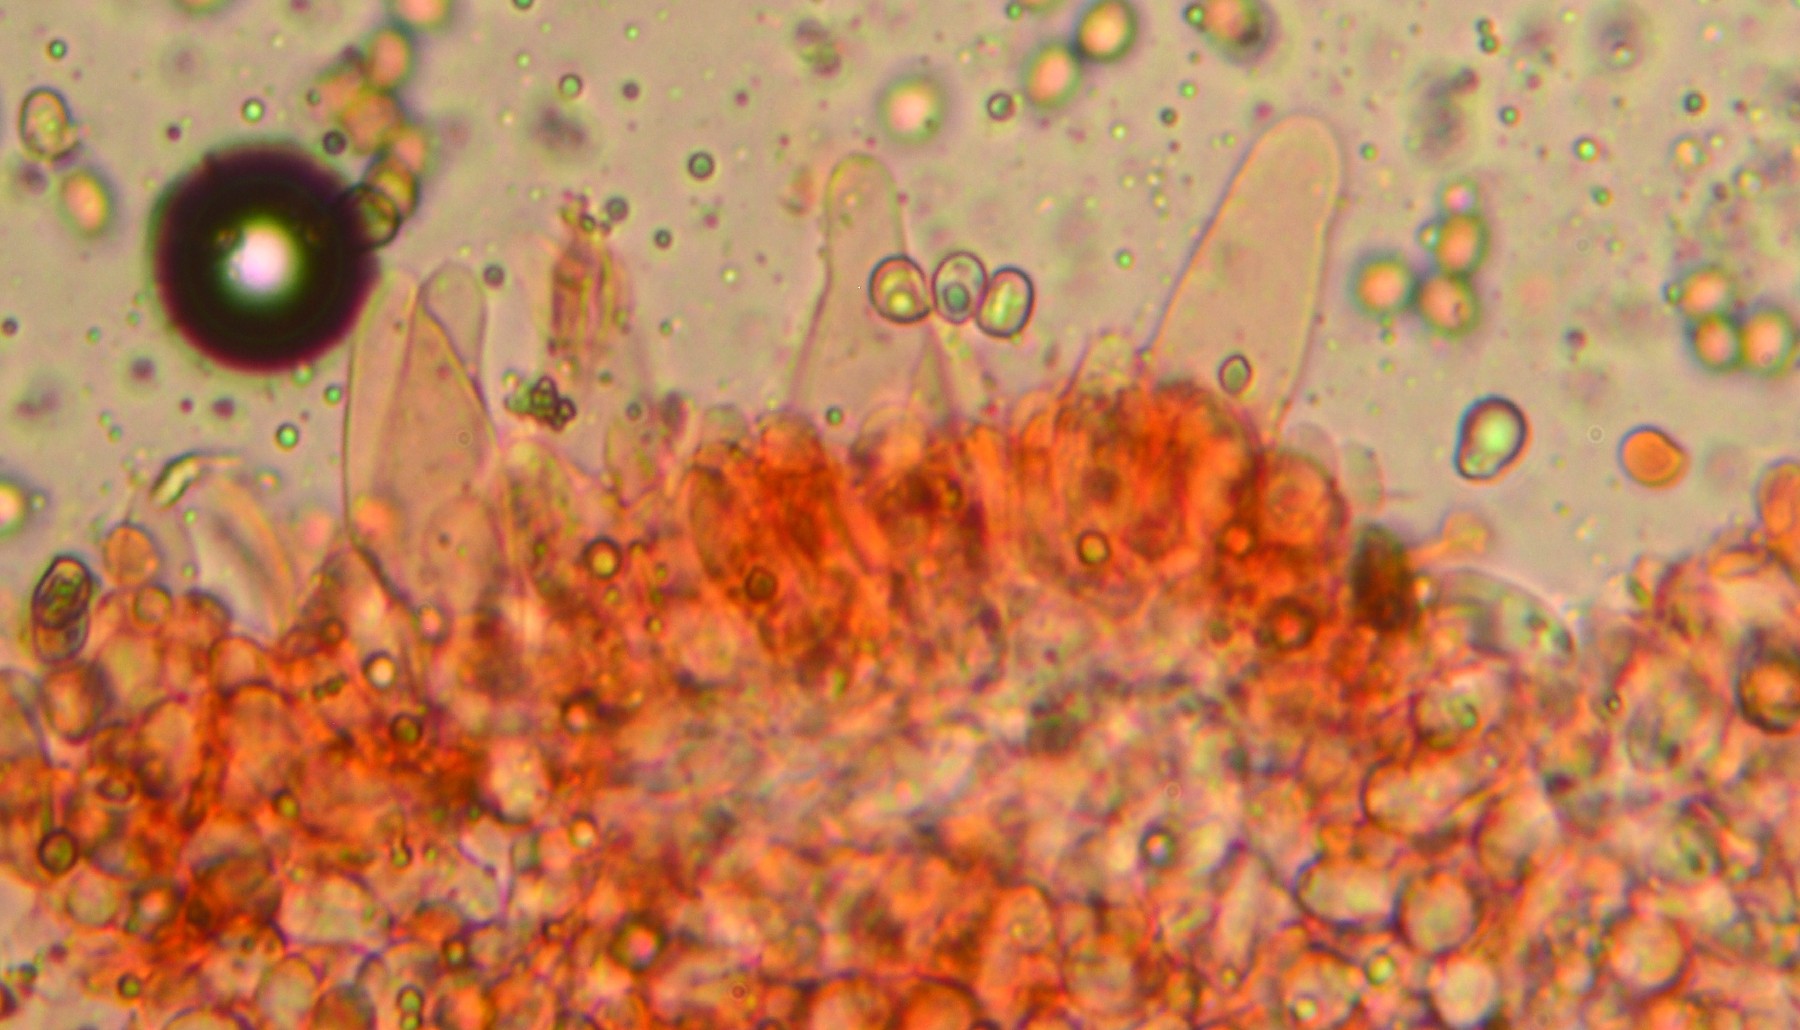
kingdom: Fungi
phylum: Basidiomycota
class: Agaricomycetes
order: Agaricales
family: Pluteaceae
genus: Pluteus
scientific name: Pluteus
